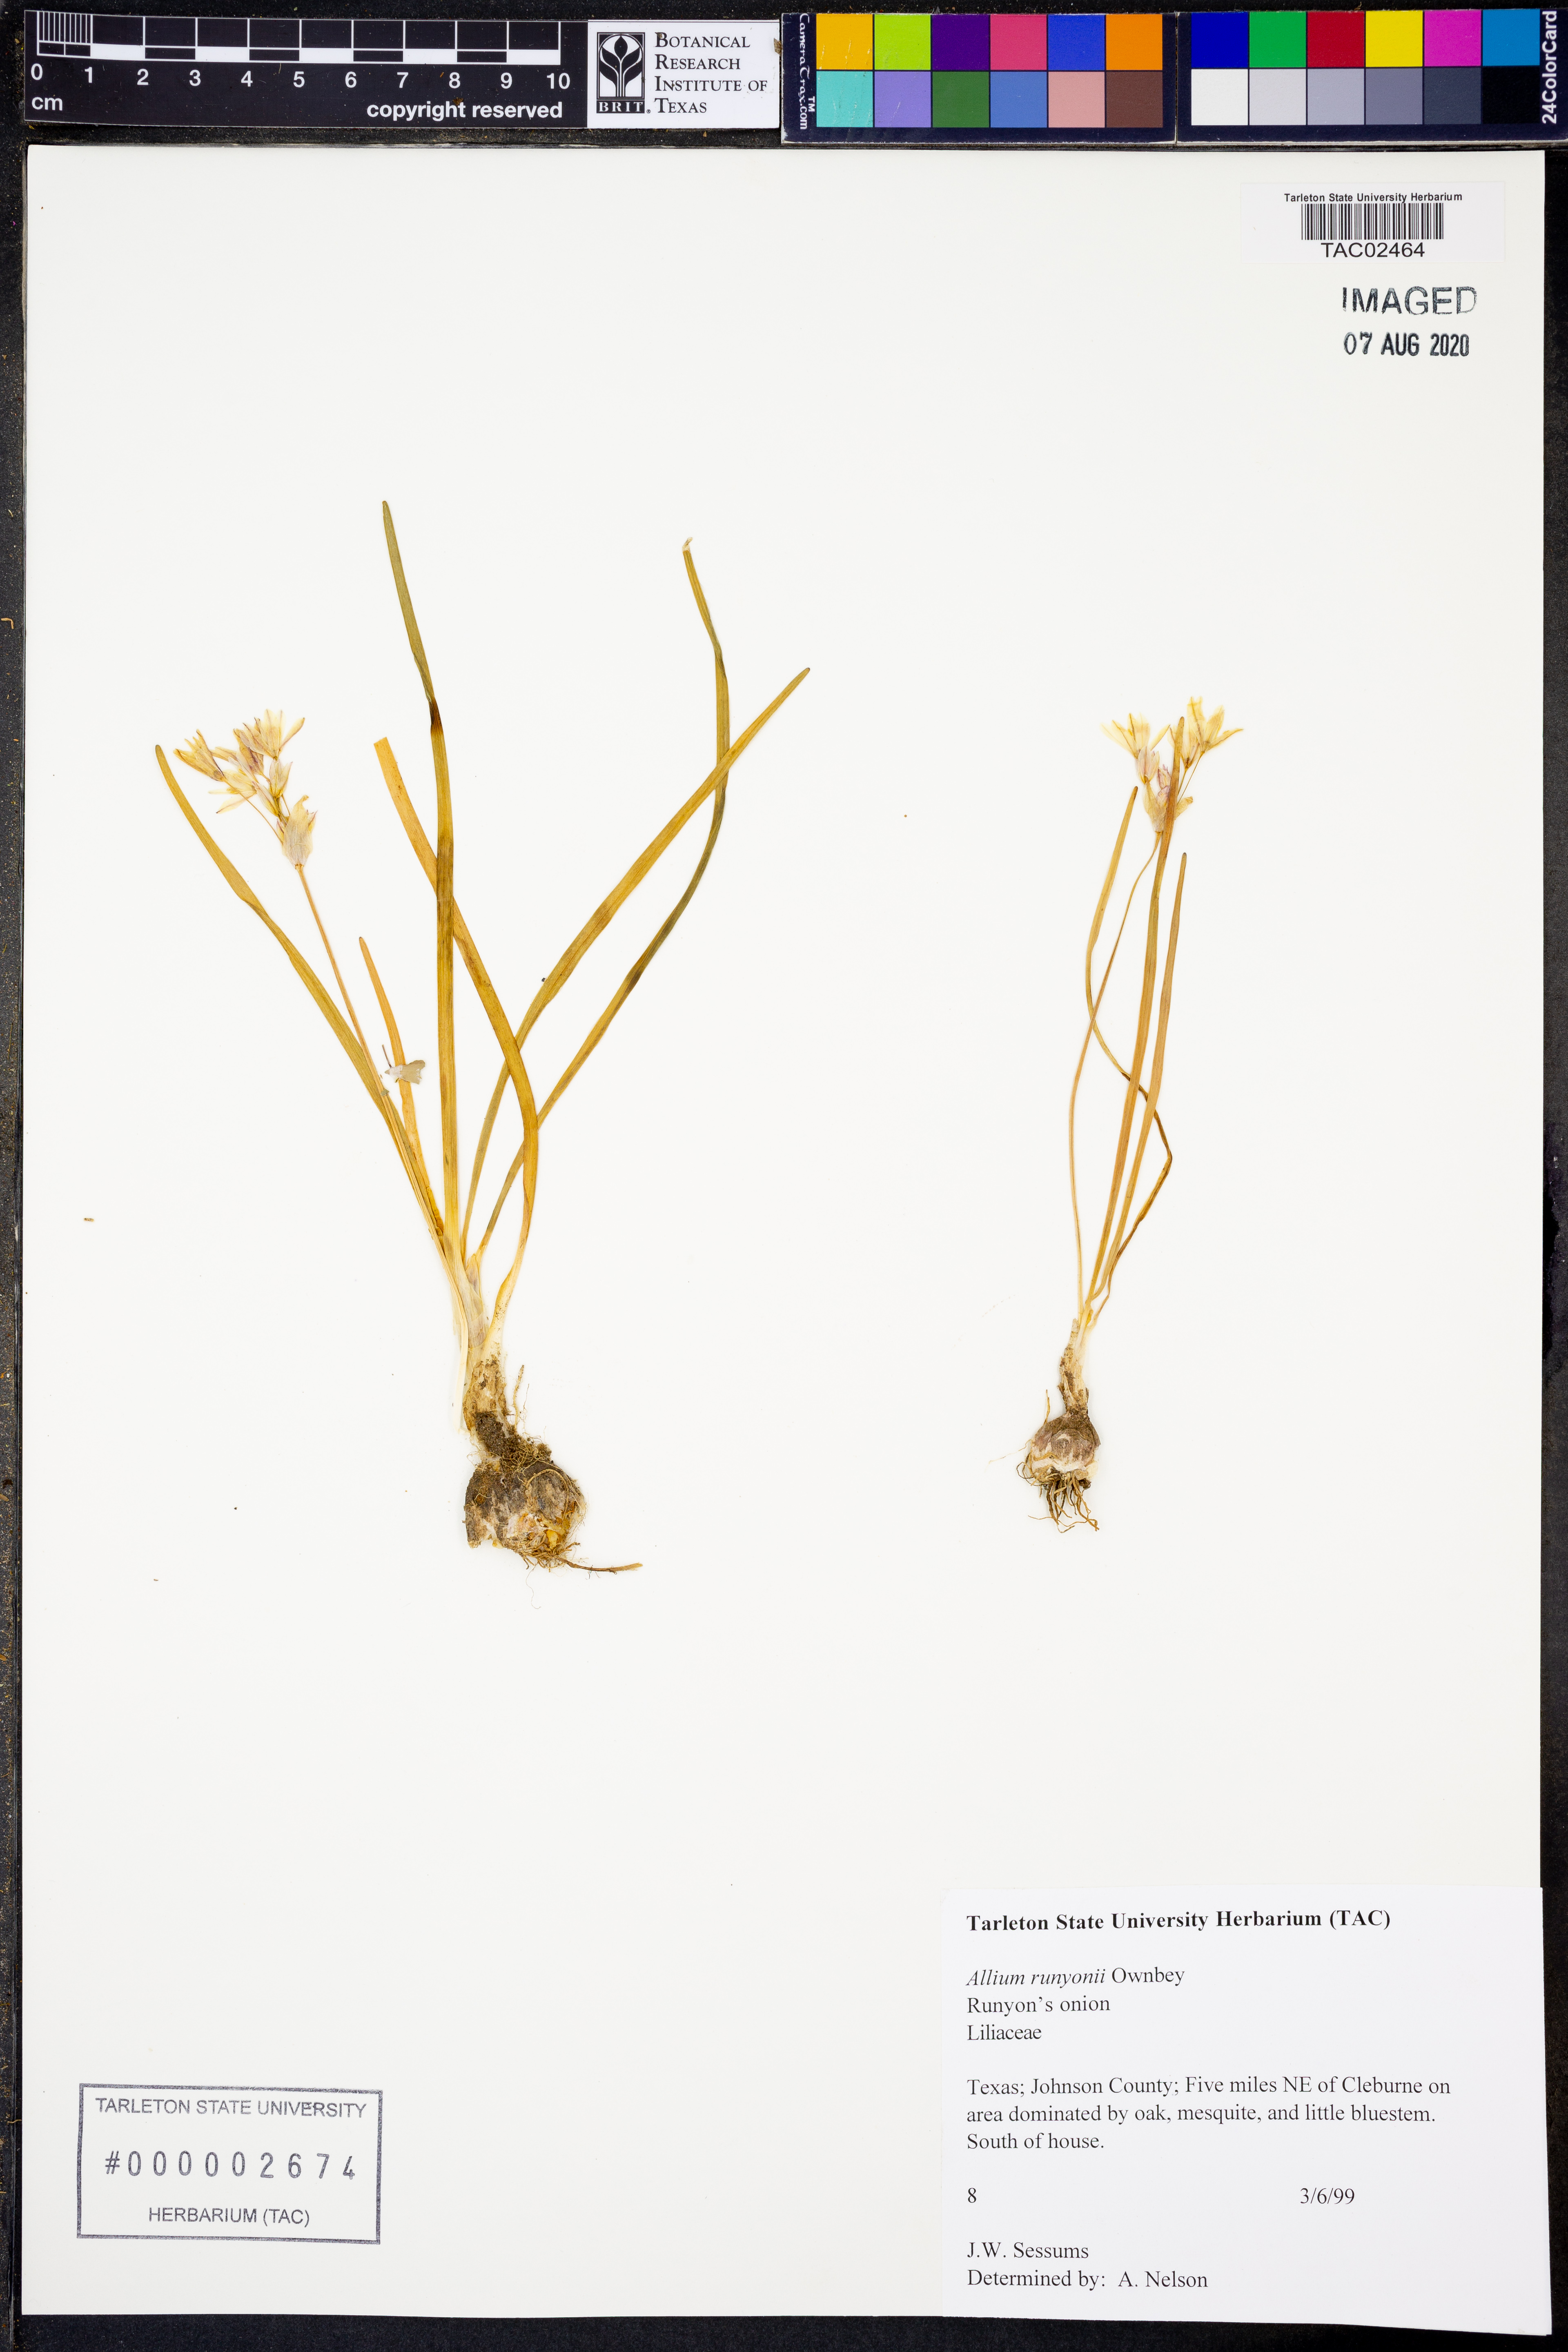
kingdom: Plantae
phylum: Tracheophyta
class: Liliopsida
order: Asparagales
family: Amaryllidaceae
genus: Allium
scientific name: Allium runyonii
